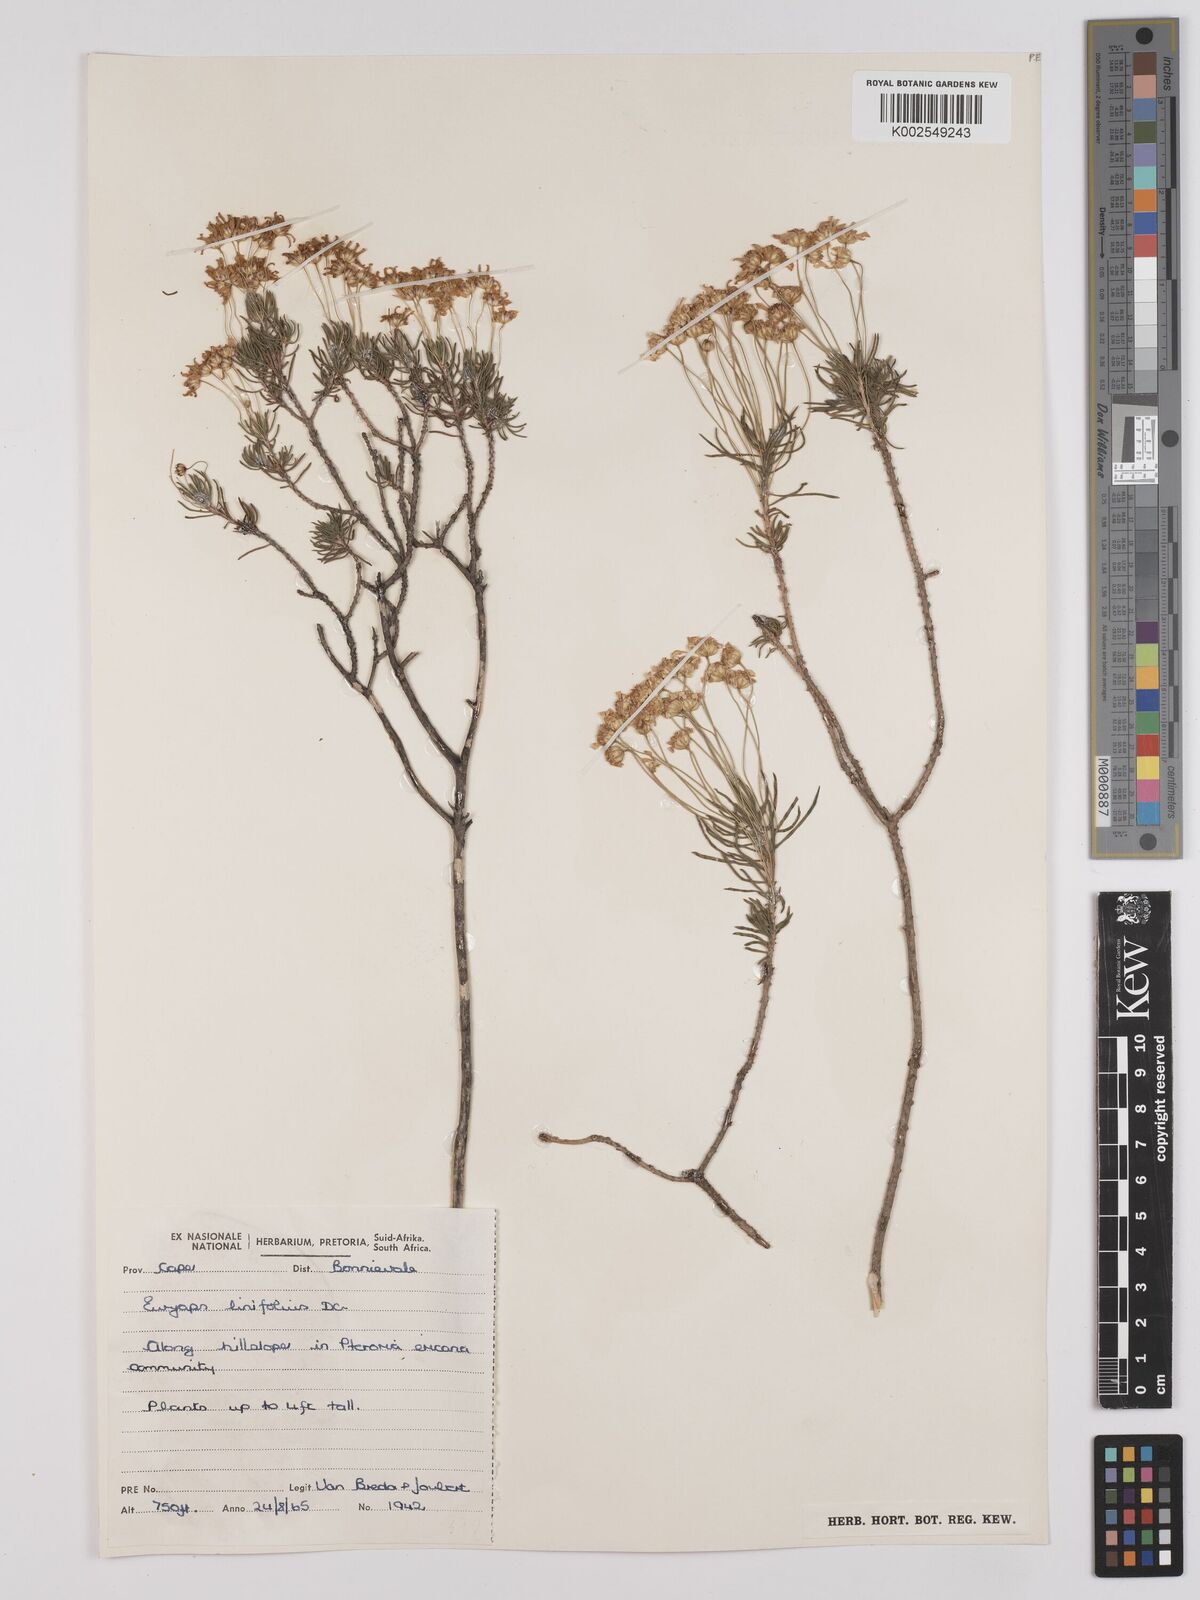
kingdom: Plantae
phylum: Tracheophyta
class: Magnoliopsida
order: Asterales
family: Asteraceae
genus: Euryops
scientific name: Euryops linifolius
